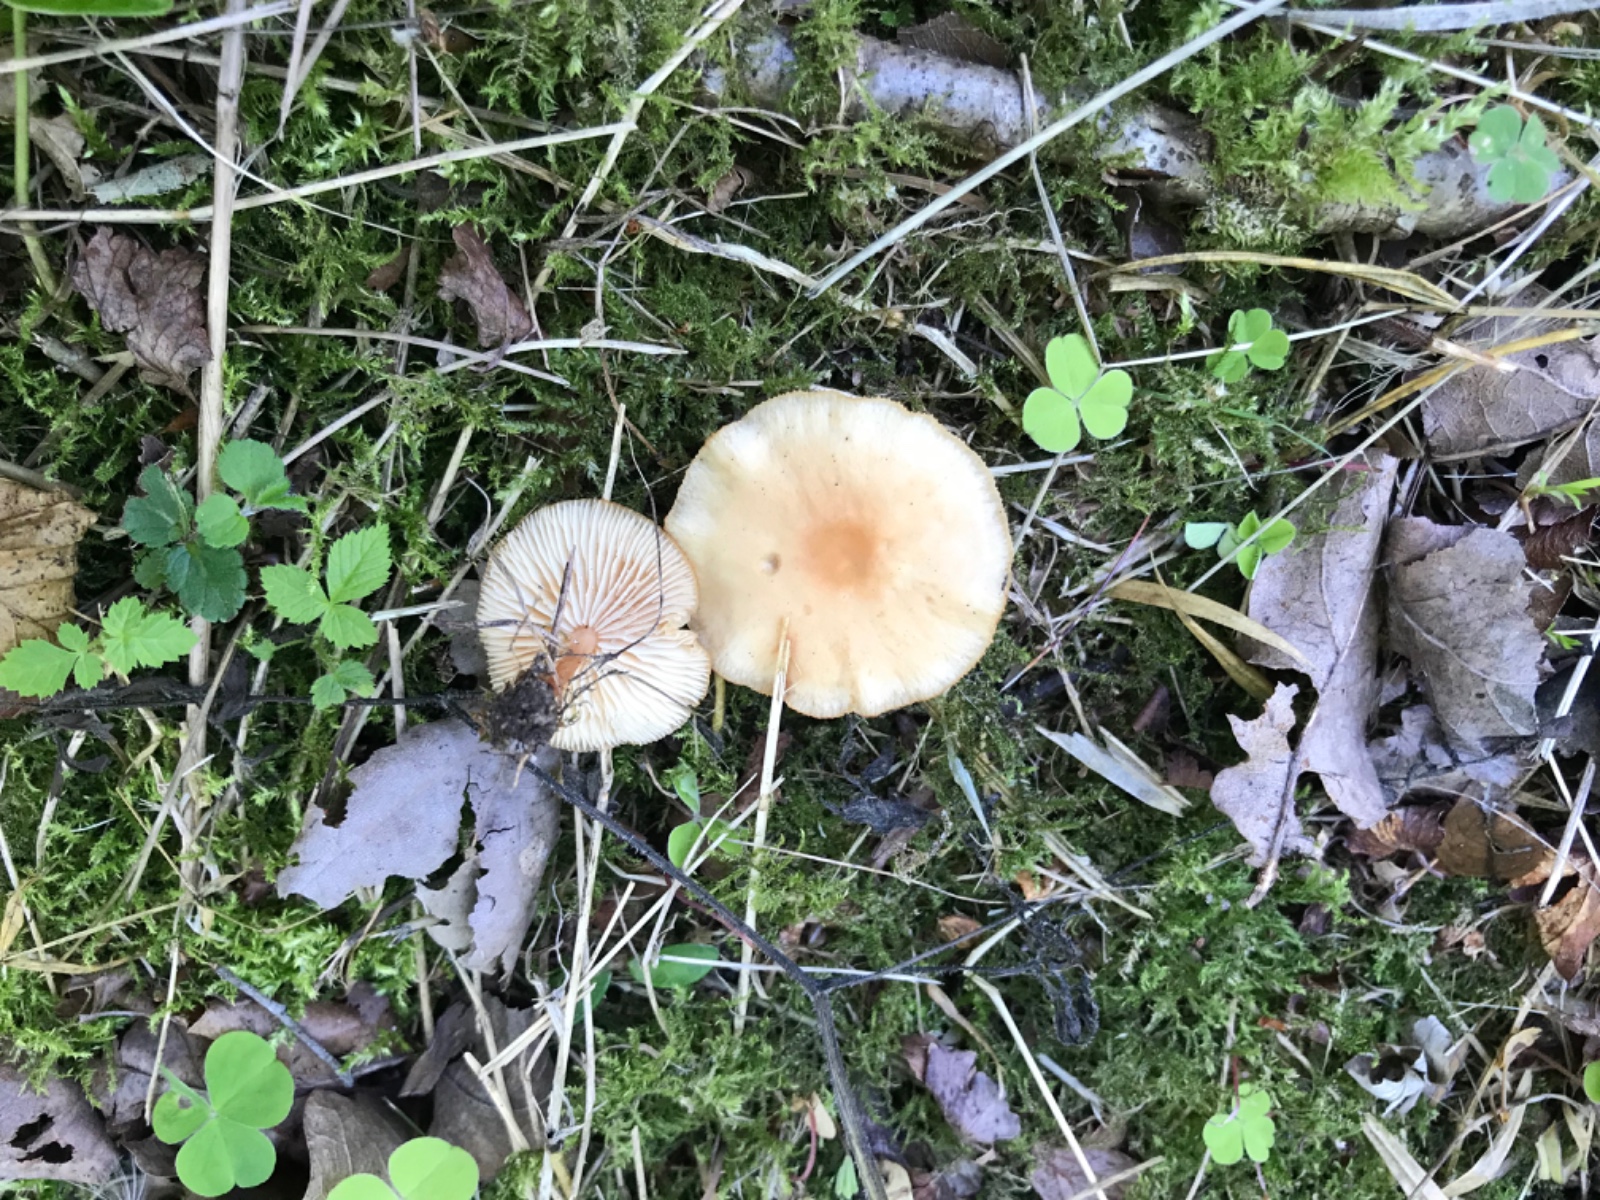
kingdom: Fungi
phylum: Basidiomycota
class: Agaricomycetes
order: Agaricales
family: Omphalotaceae
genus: Gymnopus
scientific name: Gymnopus dryophilus
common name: løv-fladhat
